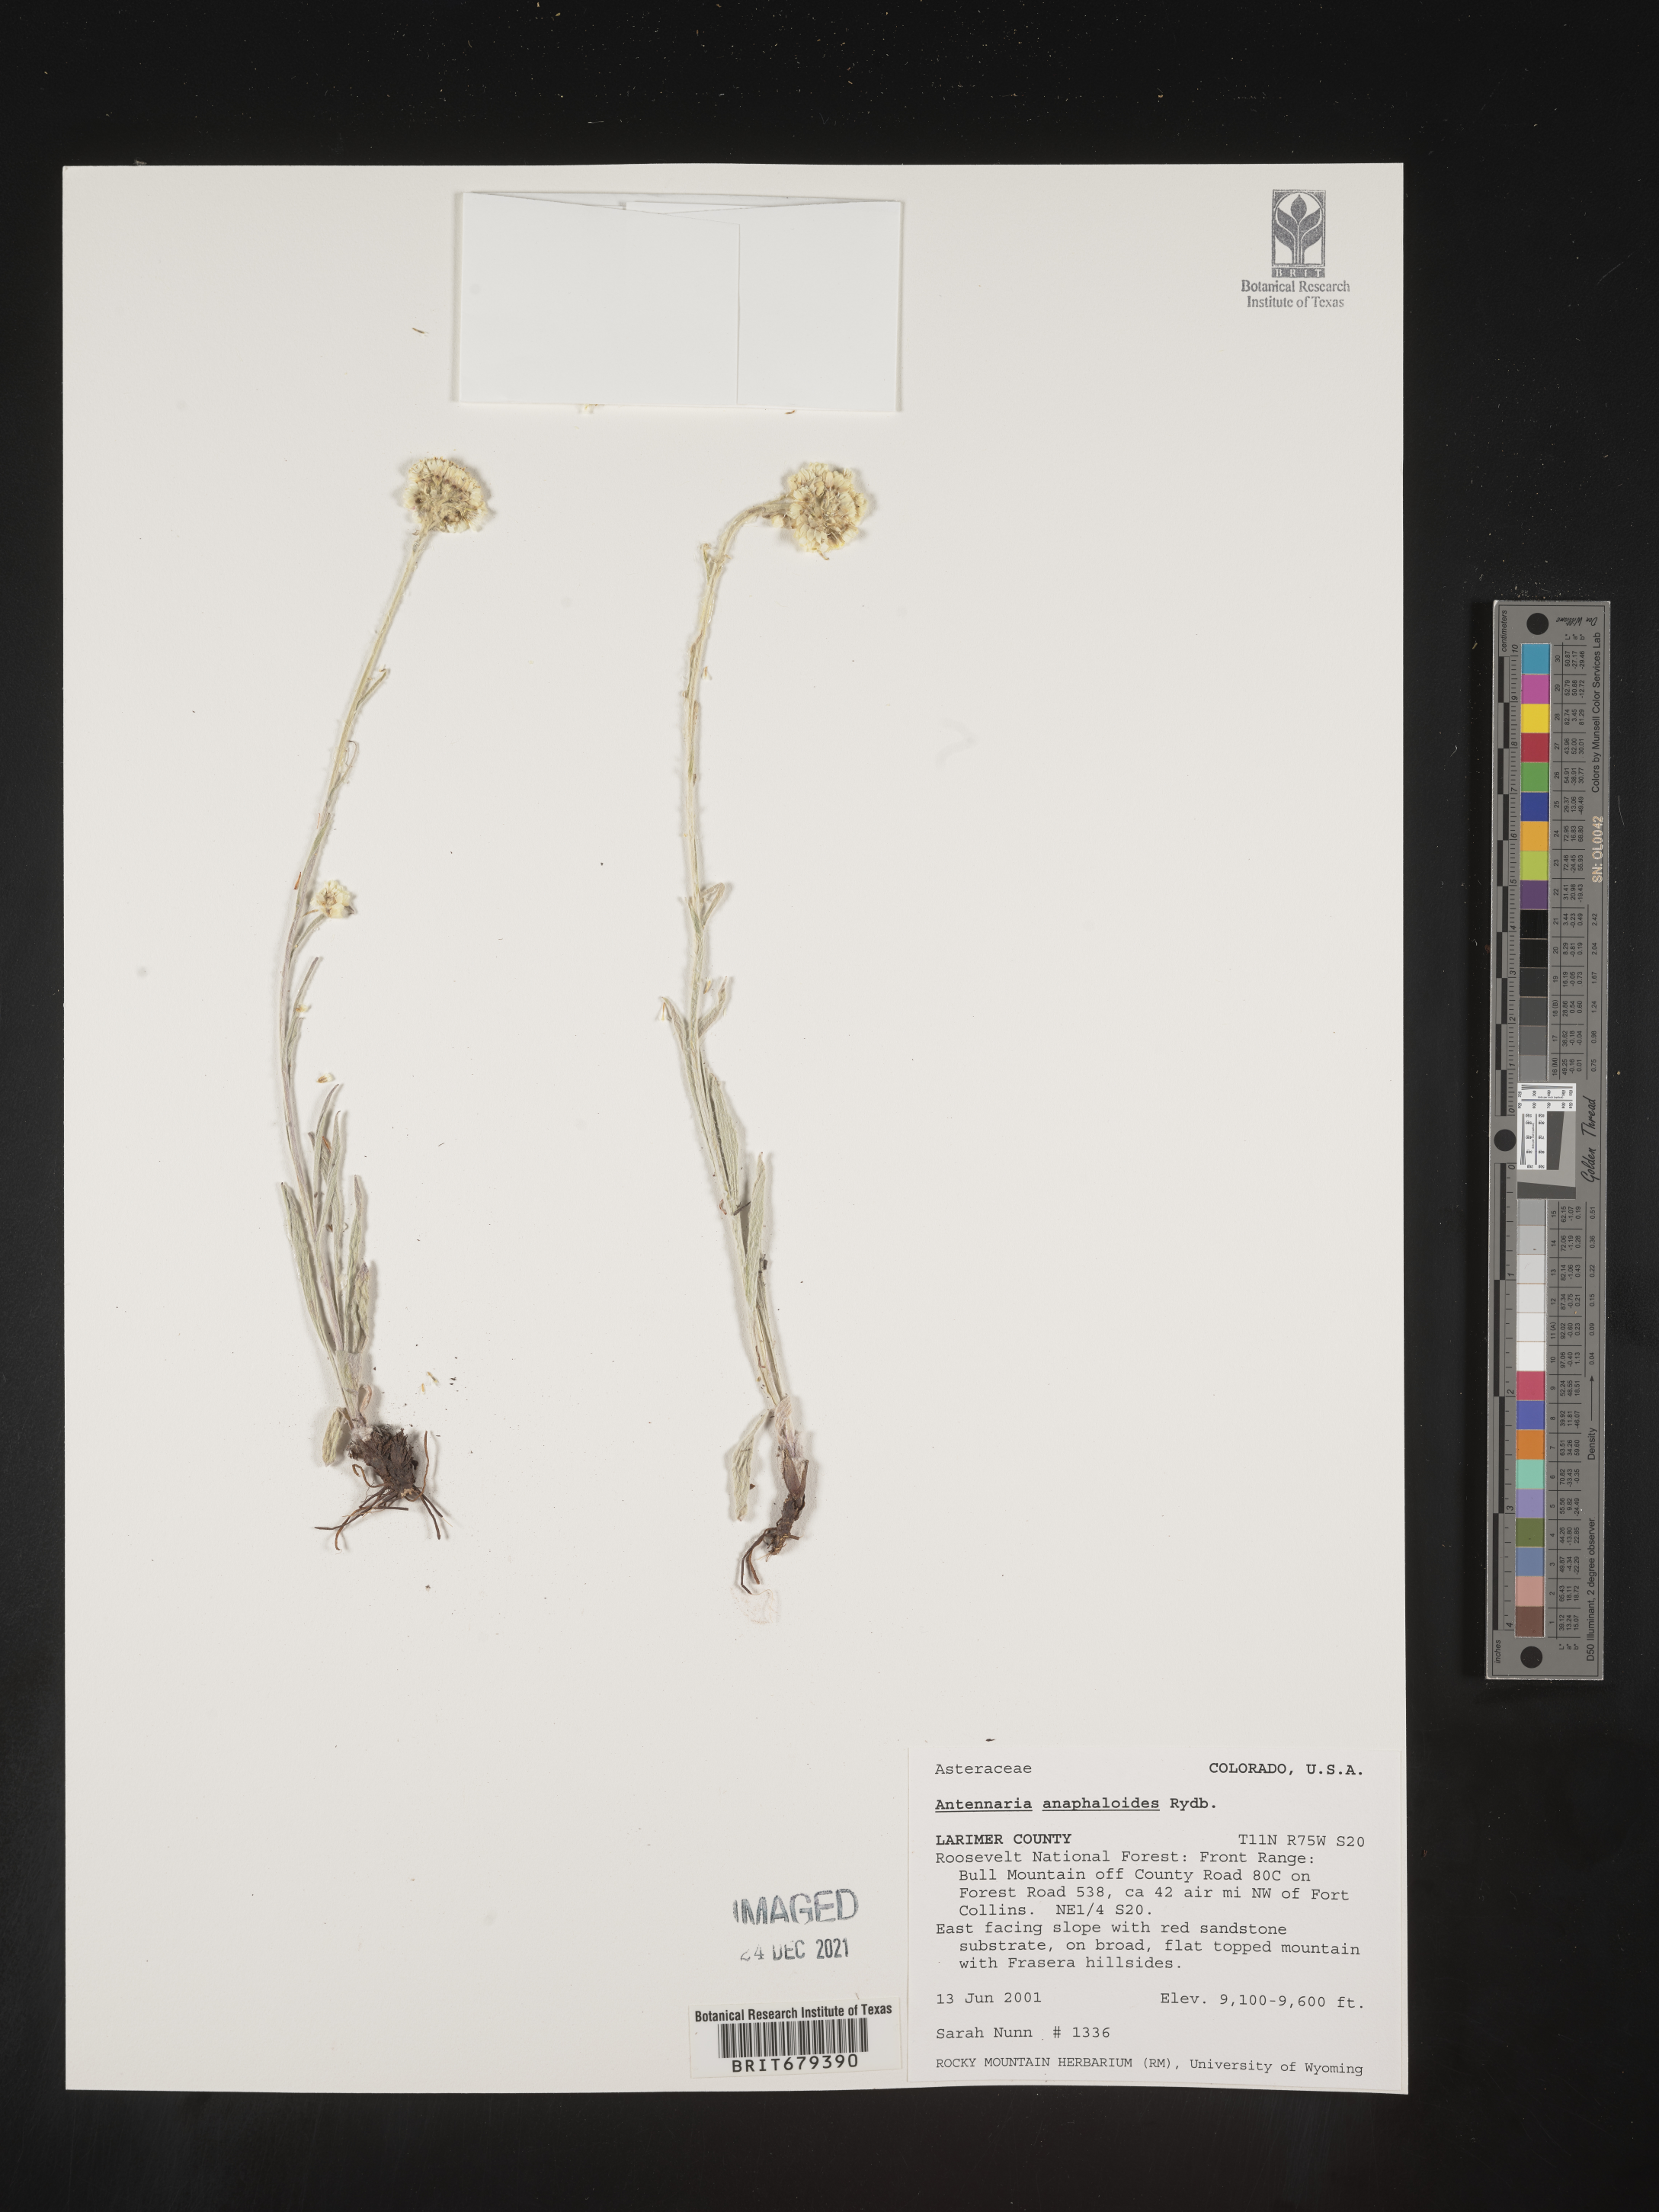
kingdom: Plantae
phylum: Tracheophyta
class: Magnoliopsida
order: Asterales
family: Asteraceae
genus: Antennaria
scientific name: Antennaria anaphaloides
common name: Tall pussytoes
